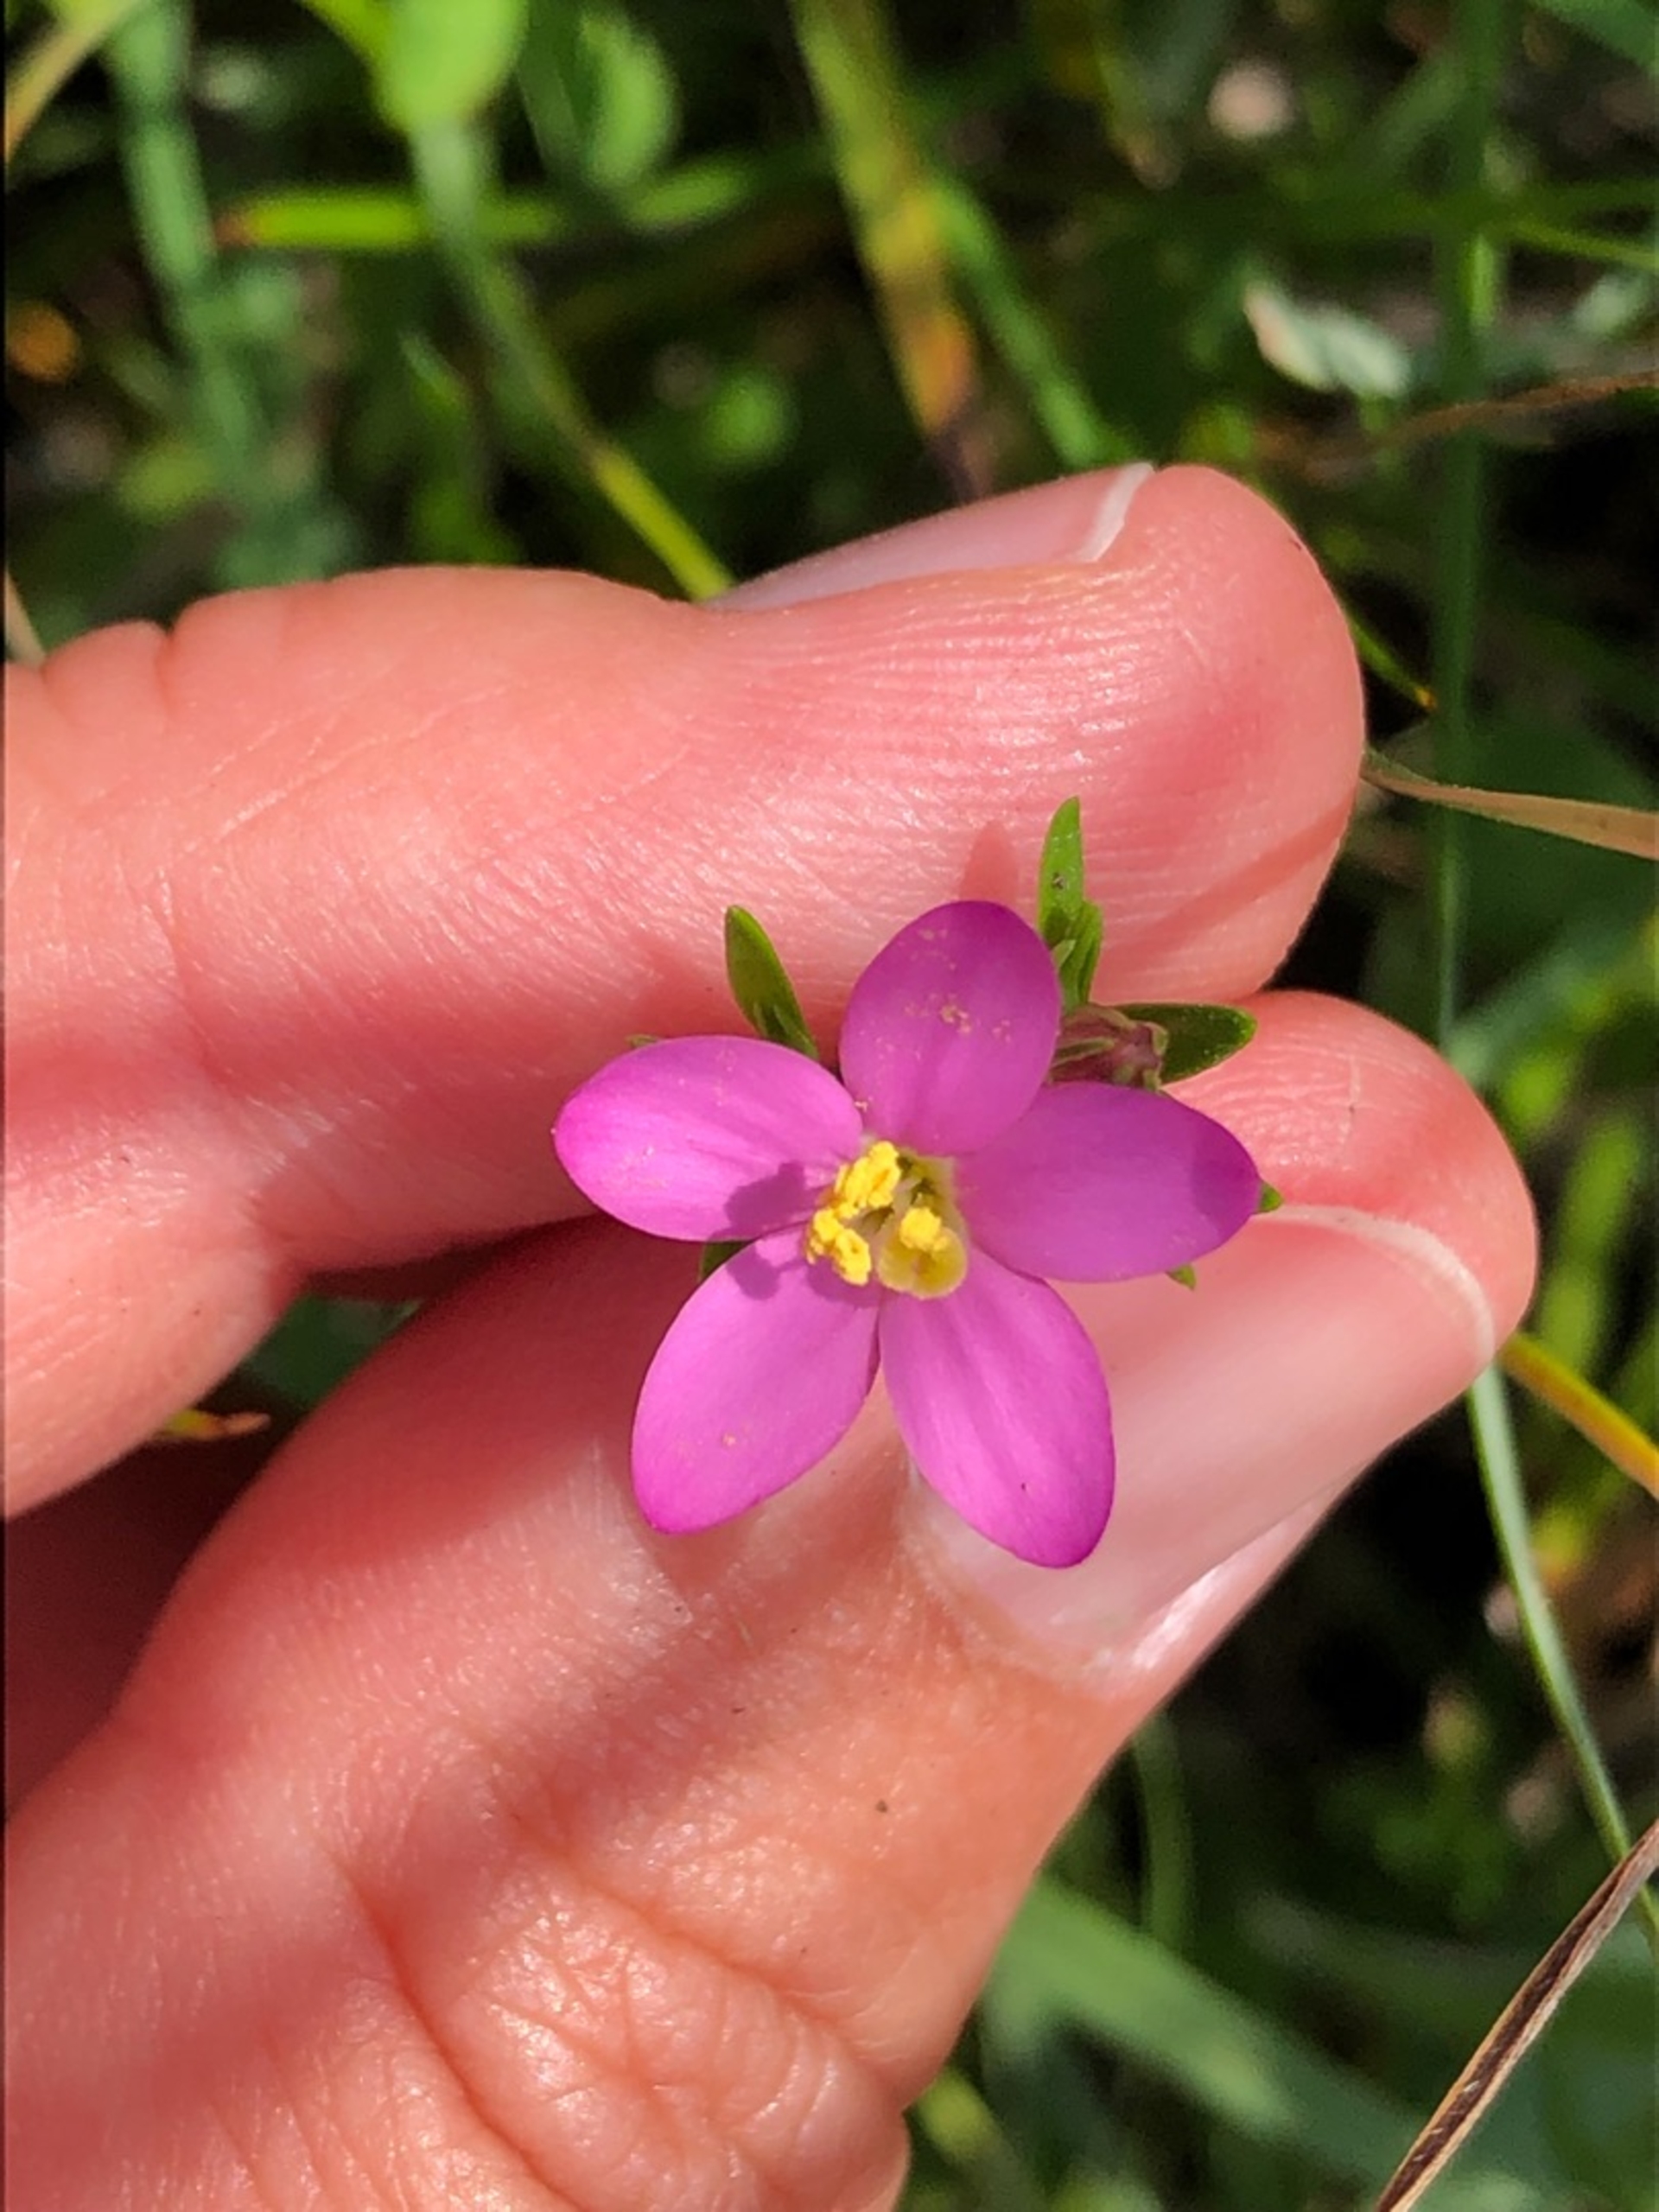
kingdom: Plantae
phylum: Tracheophyta
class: Magnoliopsida
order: Gentianales
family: Gentianaceae
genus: Centaurium
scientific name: Centaurium littorale
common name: Strand-tusindgylden
